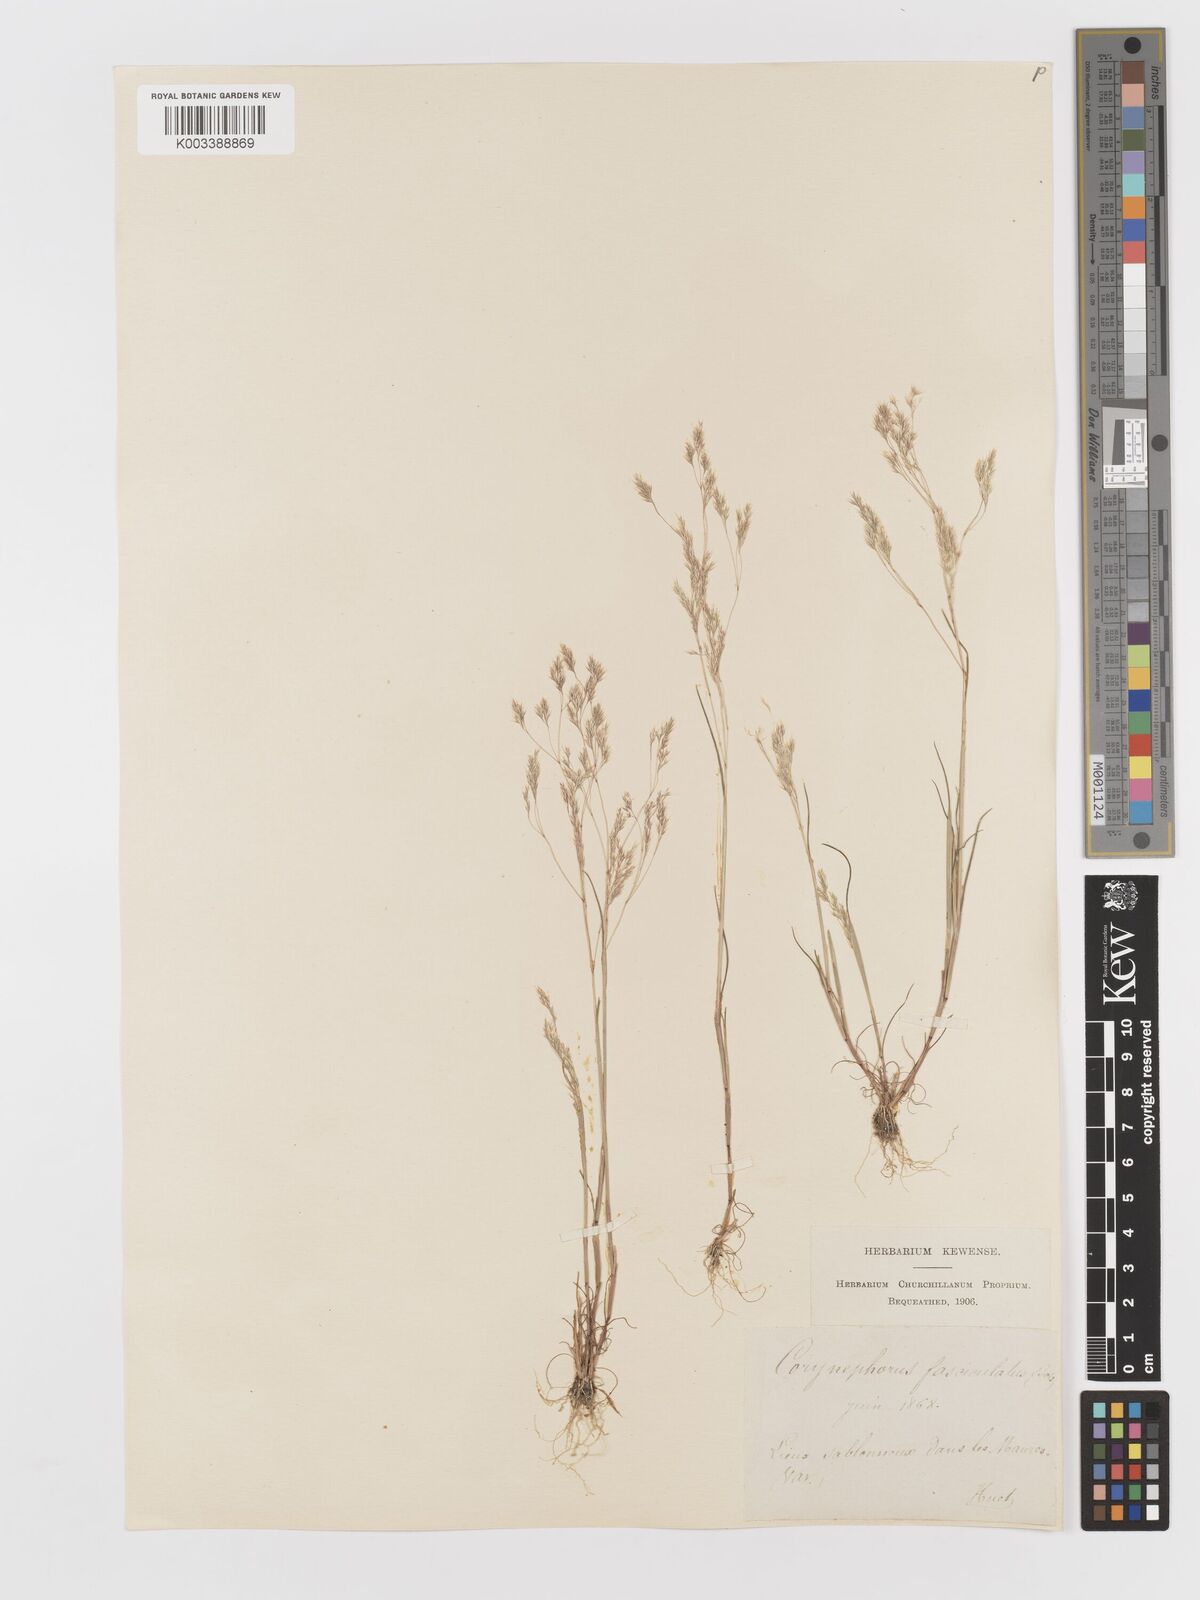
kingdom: Plantae
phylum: Tracheophyta
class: Liliopsida
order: Poales
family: Poaceae
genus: Corynephorus
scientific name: Corynephorus fasciculatus
